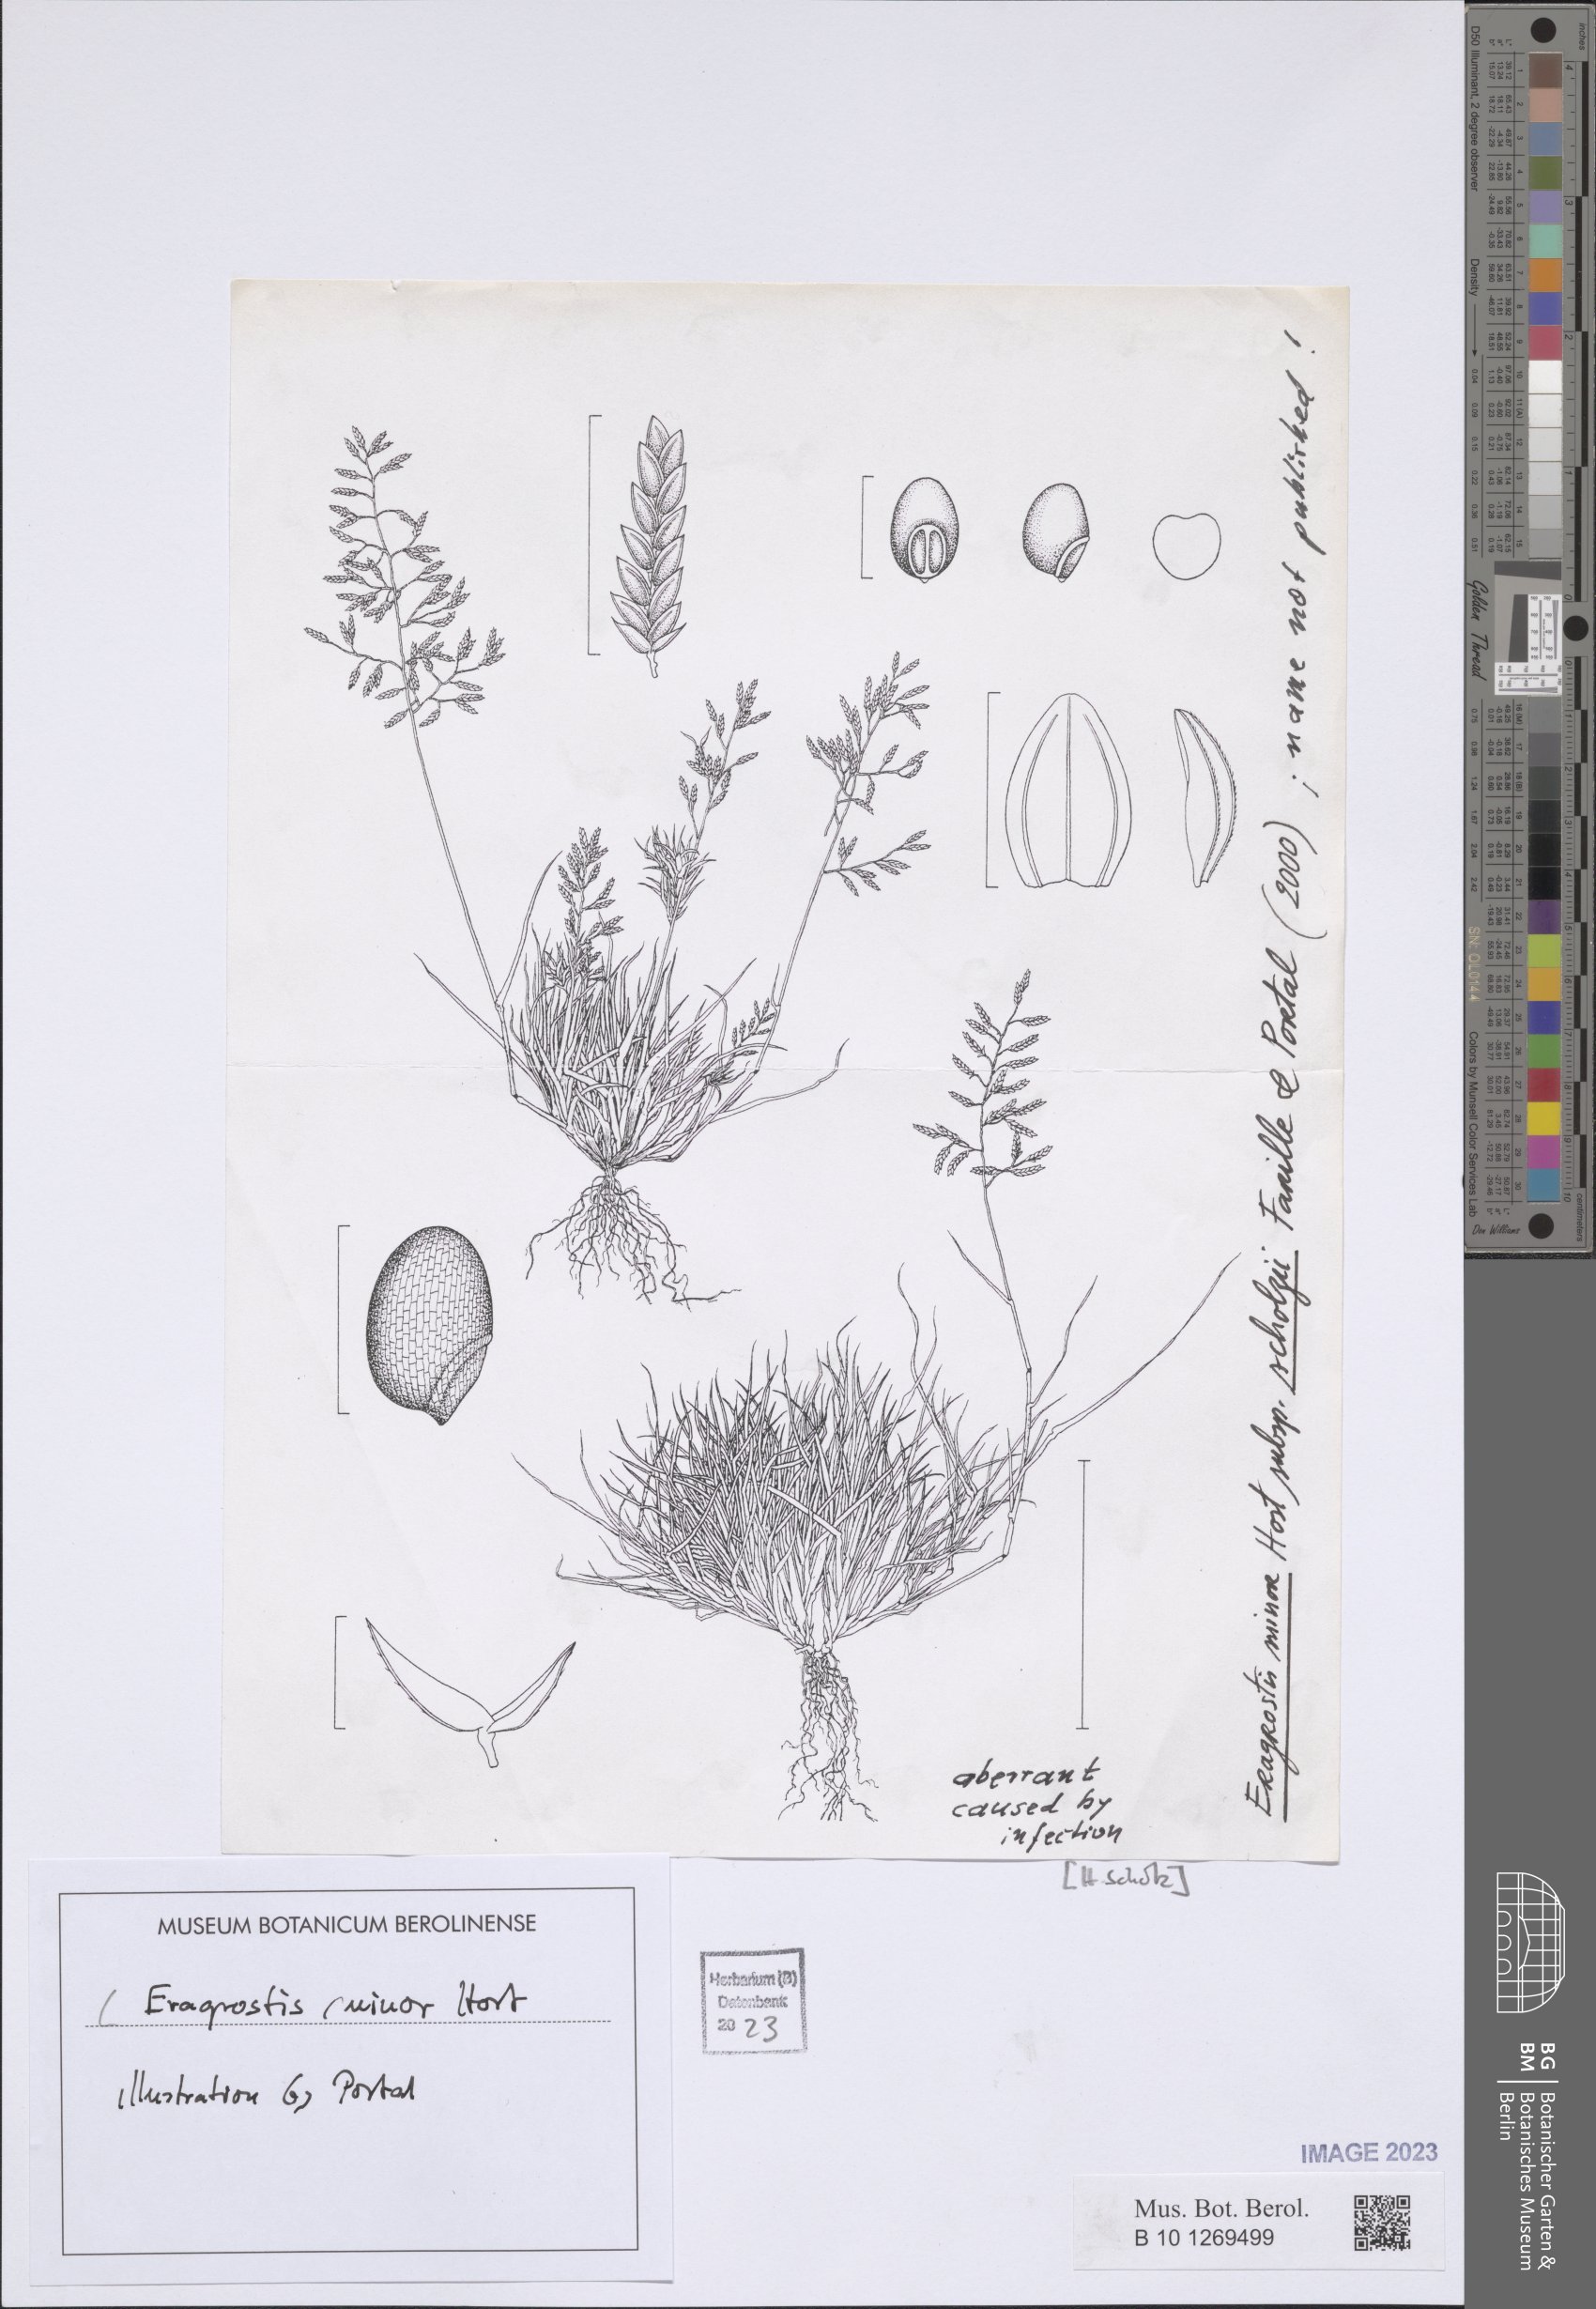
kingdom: Plantae
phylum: Tracheophyta
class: Liliopsida
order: Poales
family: Poaceae
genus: Eragrostis
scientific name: Eragrostis minor
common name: Small love-grass
